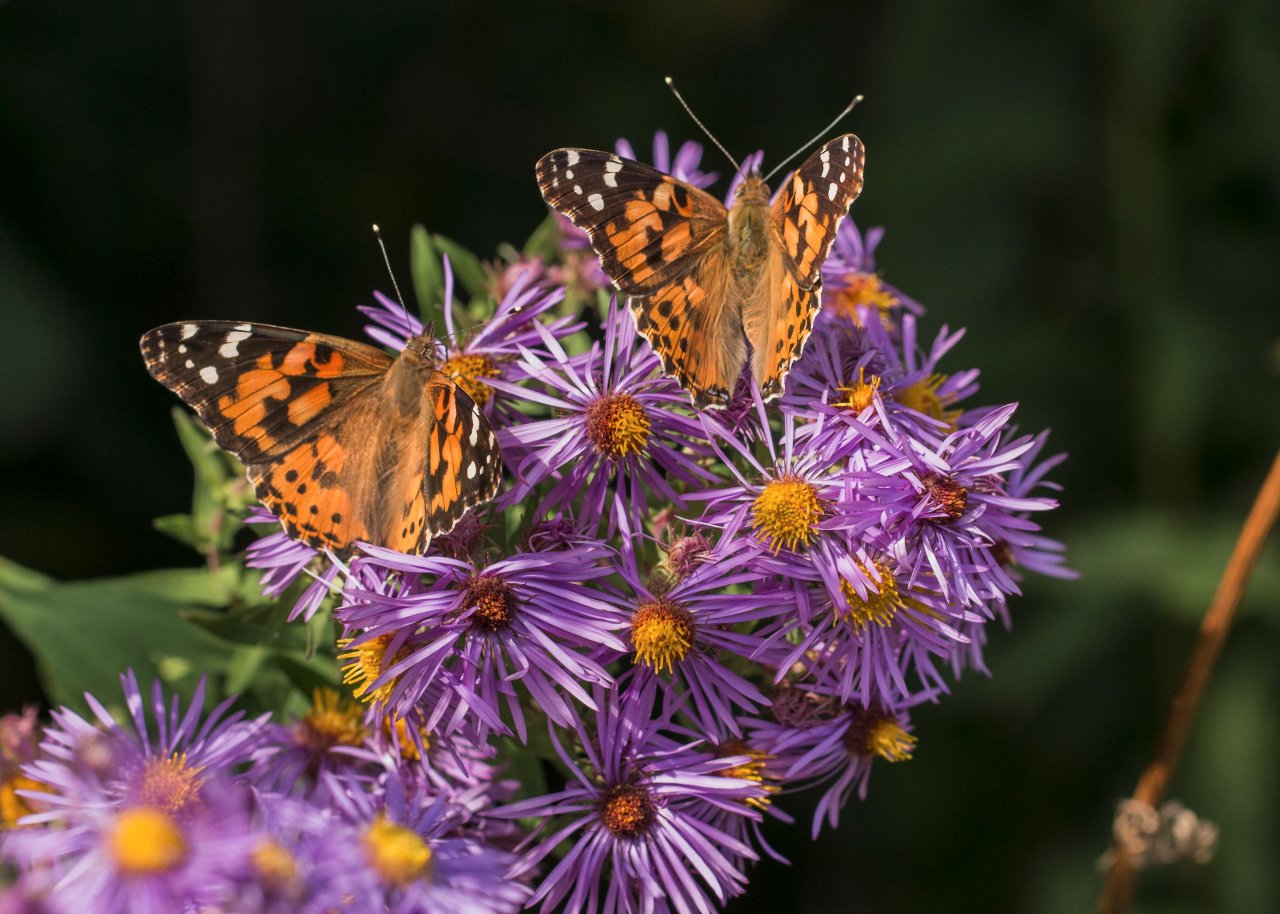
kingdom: Animalia
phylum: Arthropoda
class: Insecta
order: Lepidoptera
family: Nymphalidae
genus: Vanessa
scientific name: Vanessa cardui
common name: Painted Lady
